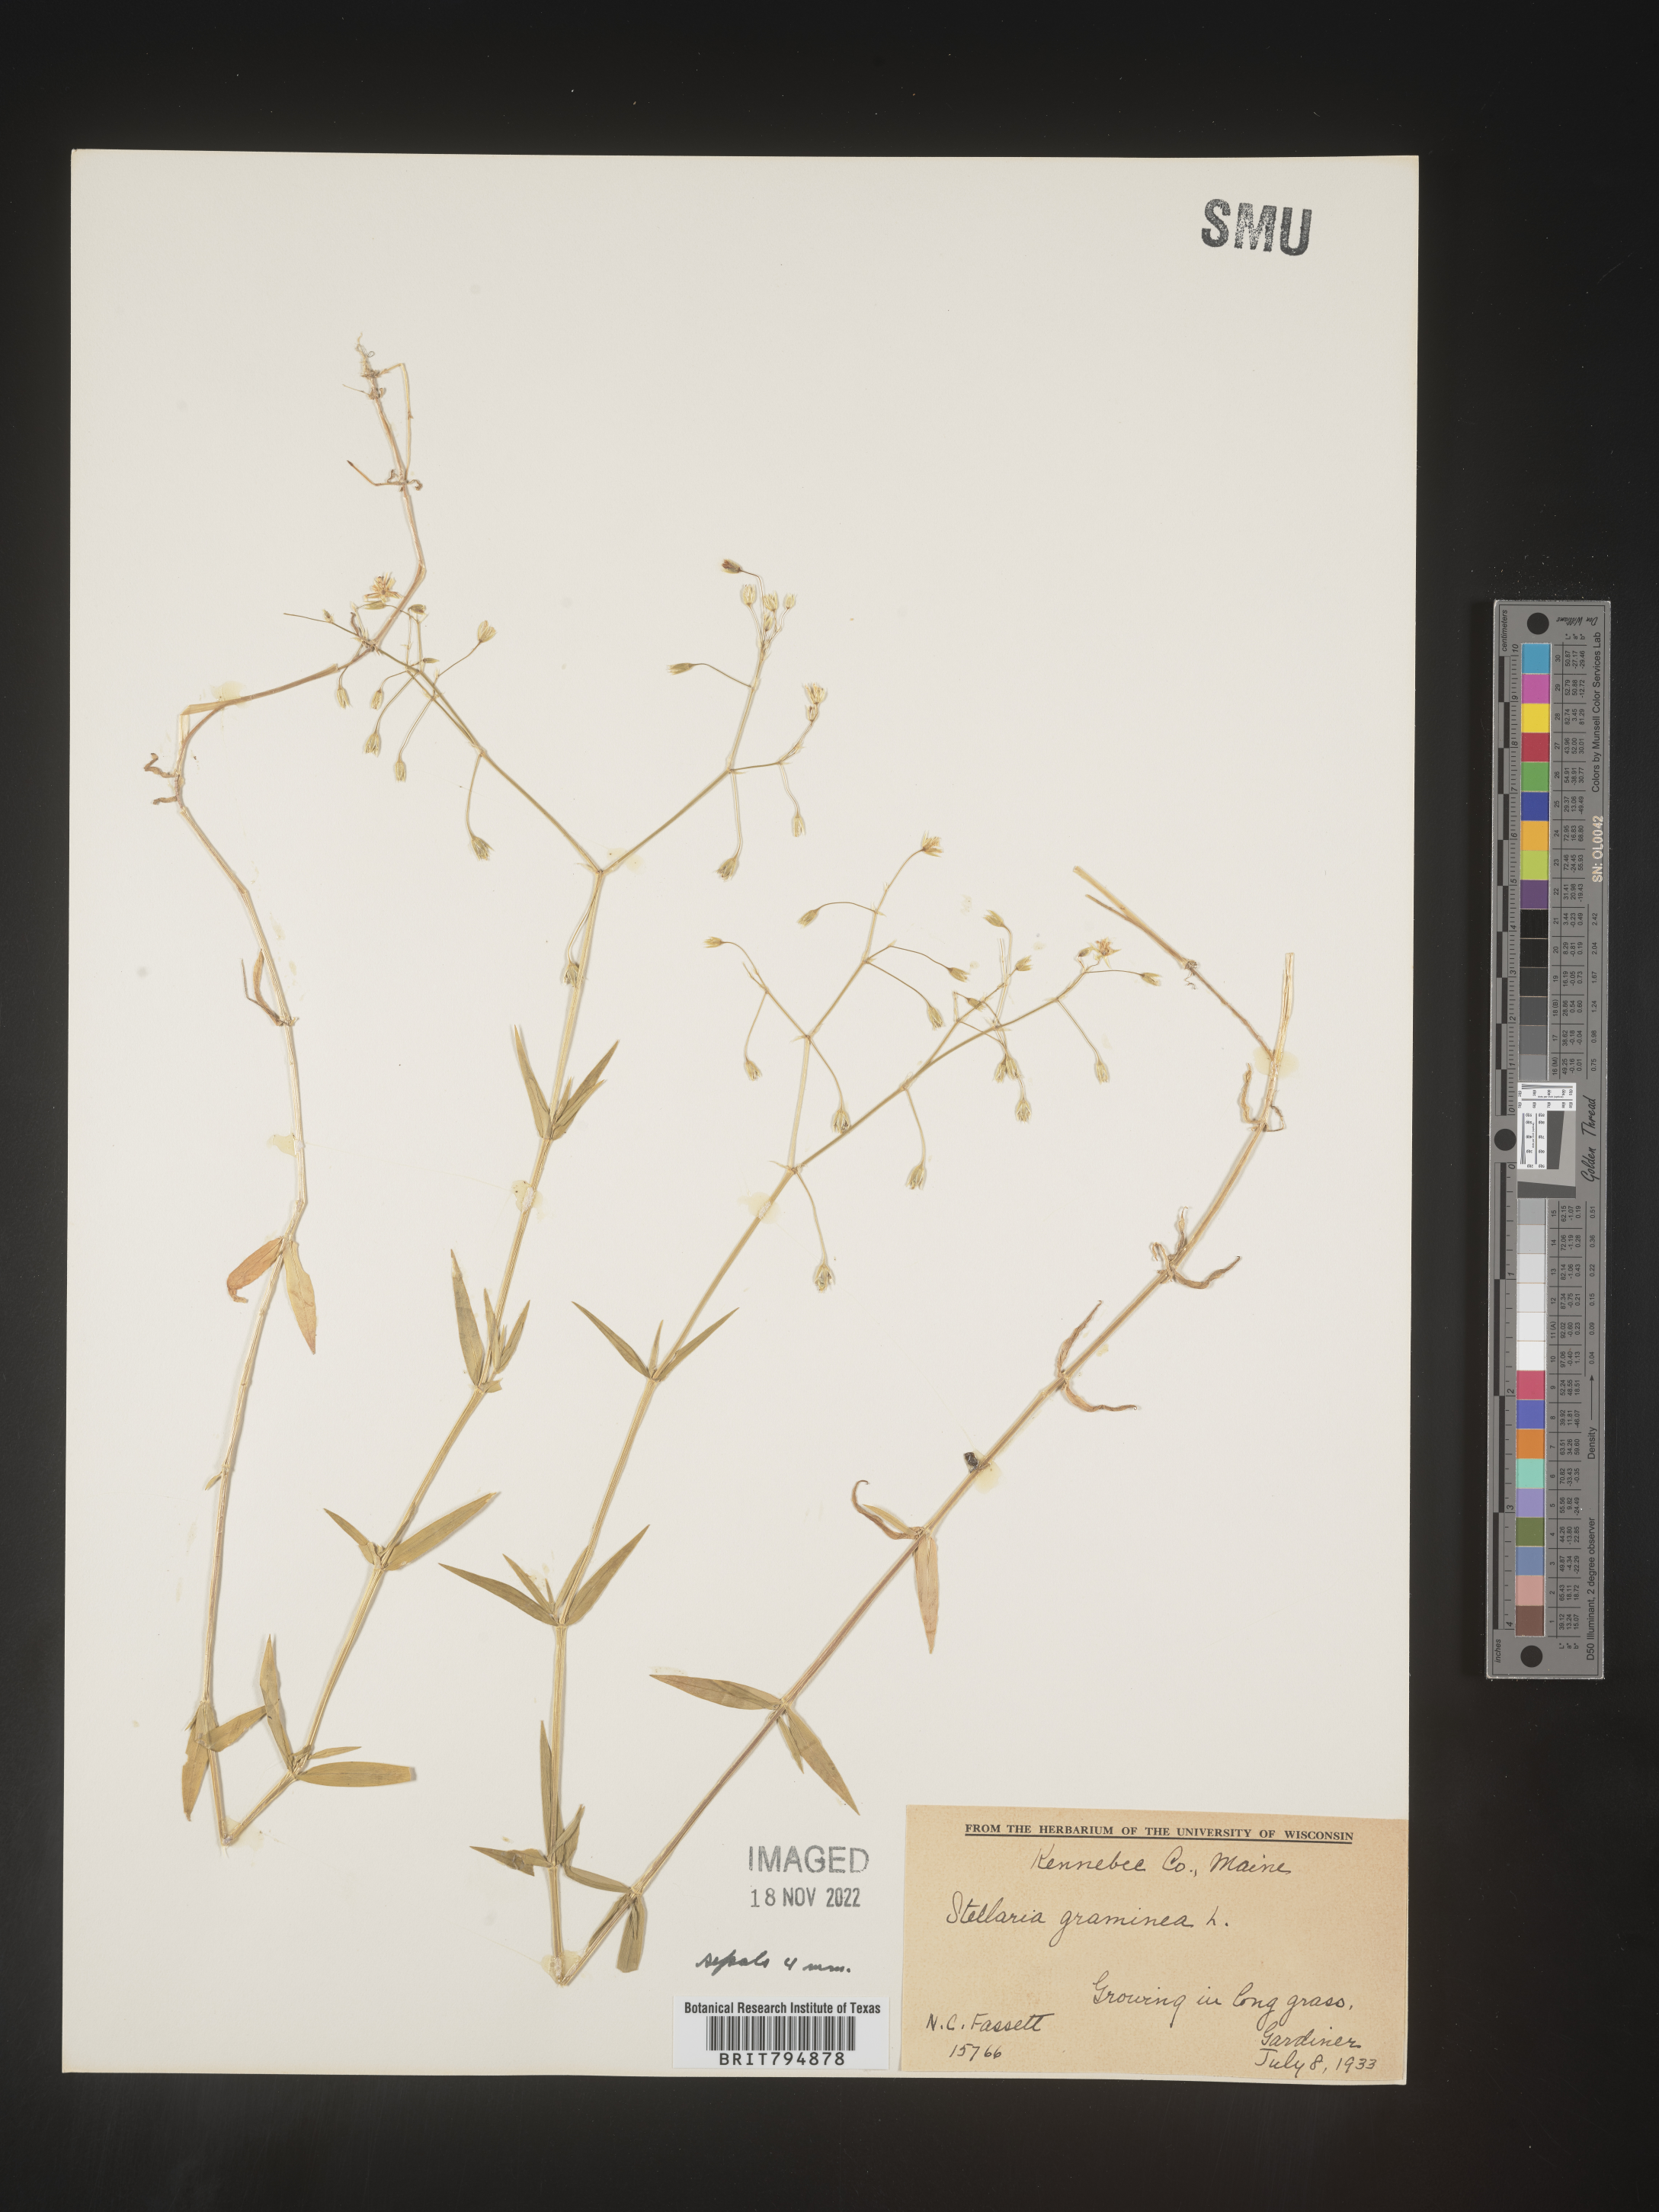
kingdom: Plantae
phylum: Tracheophyta
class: Magnoliopsida
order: Caryophyllales
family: Caryophyllaceae
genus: Stellaria
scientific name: Stellaria graminea
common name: Grass-like starwort
